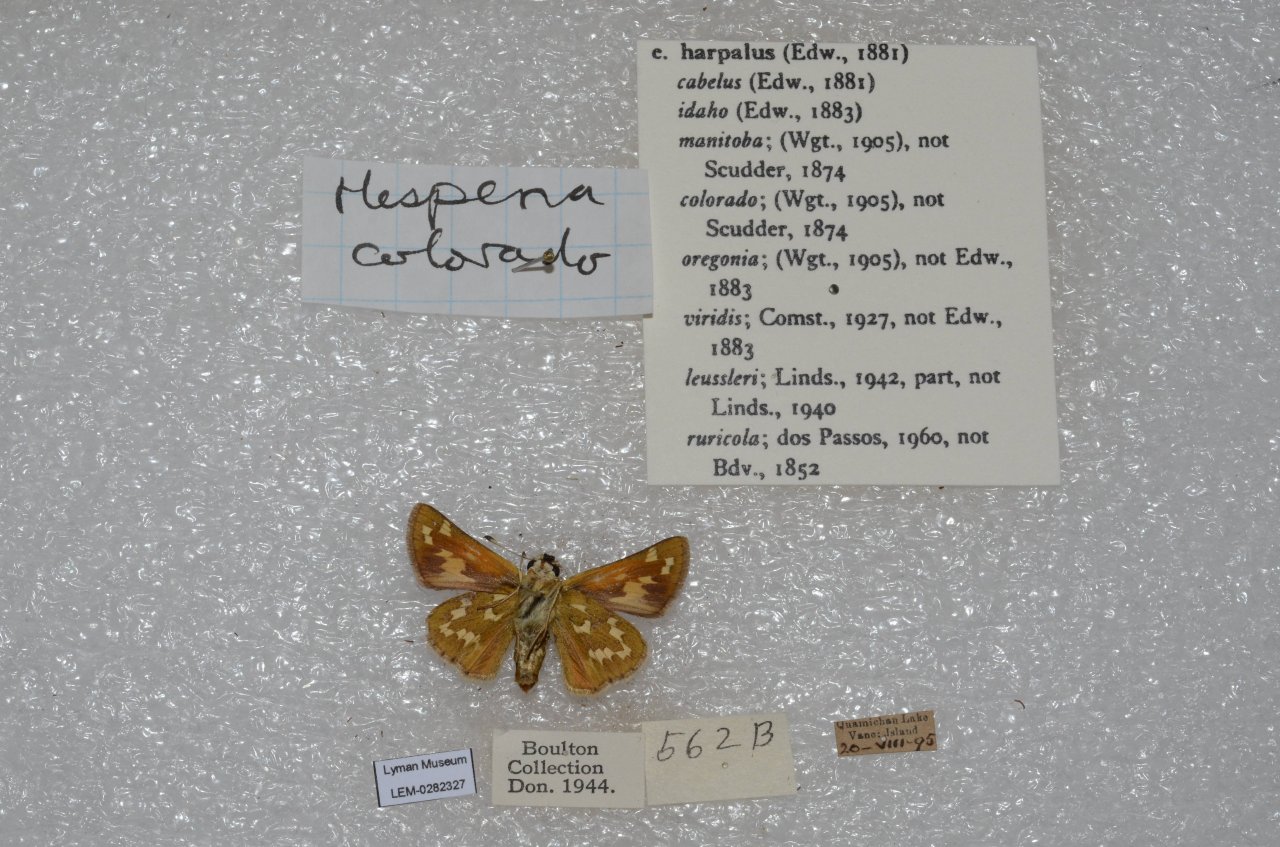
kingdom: Animalia
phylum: Arthropoda
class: Insecta
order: Lepidoptera
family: Hesperiidae
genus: Hesperia
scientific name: Hesperia comma
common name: Western Branded Skipper
